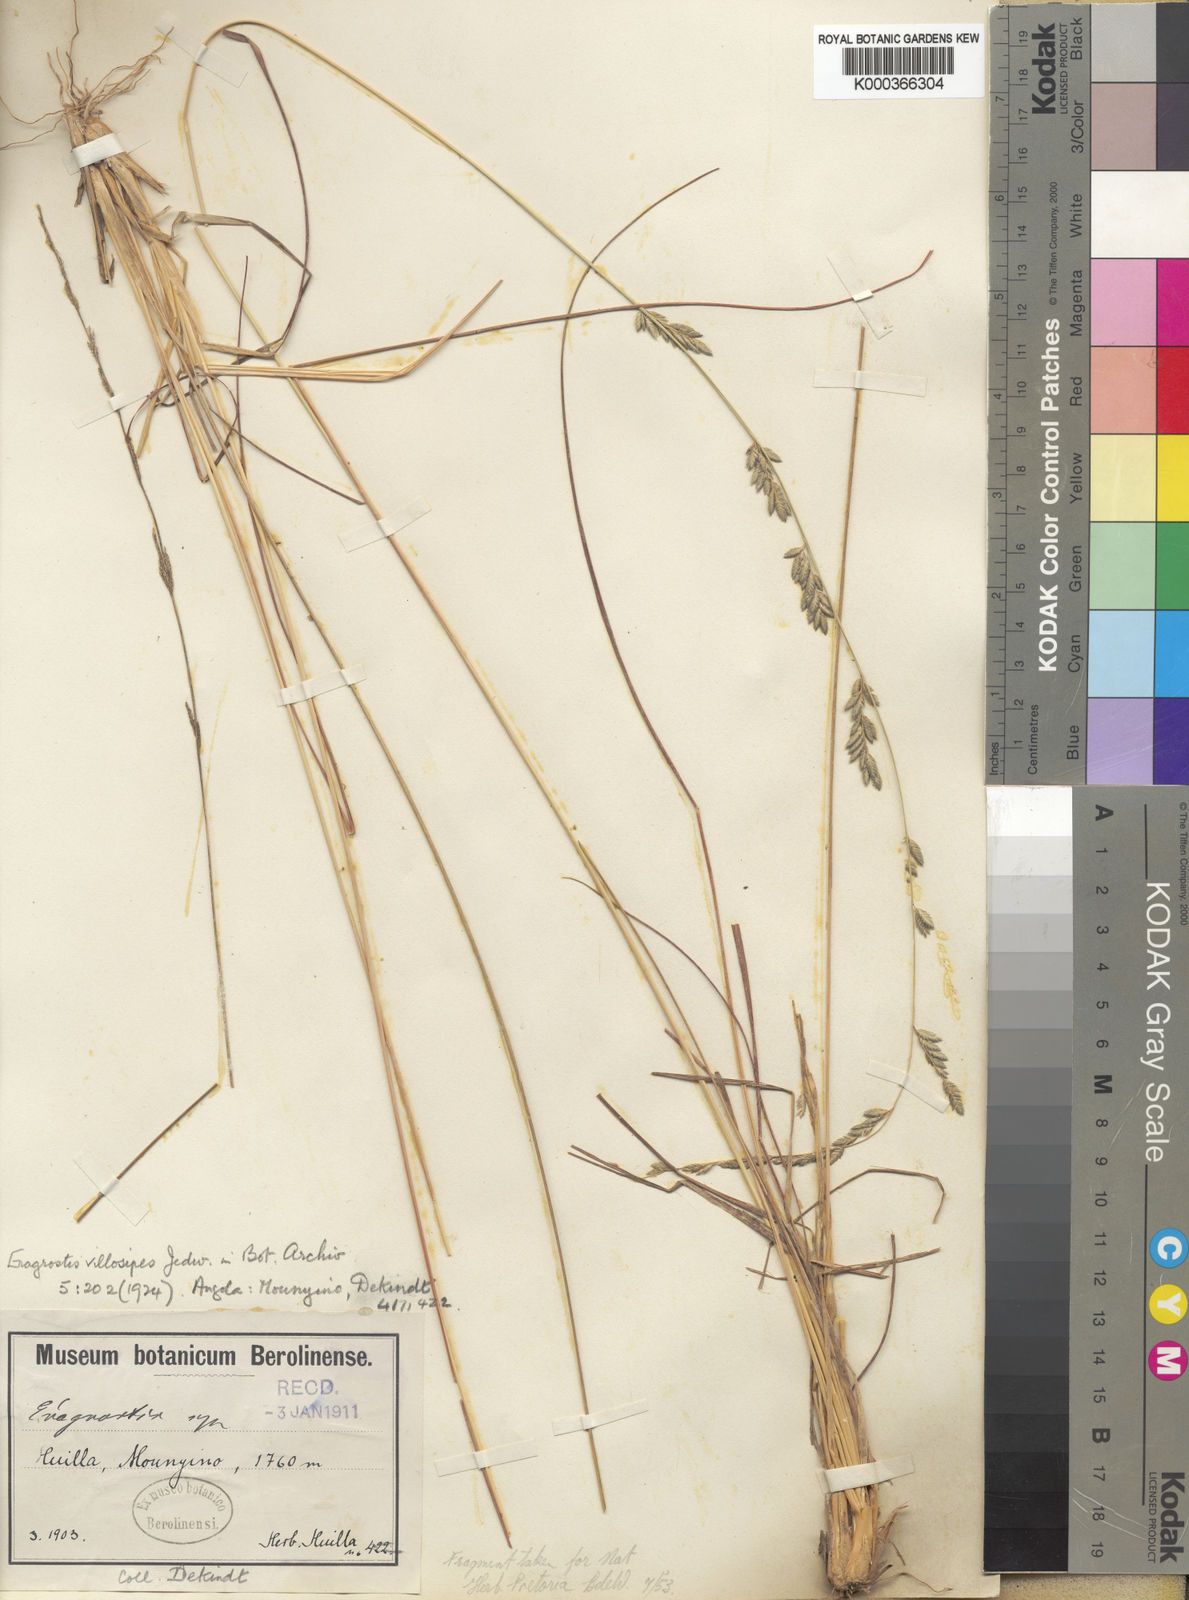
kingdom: Plantae
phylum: Tracheophyta
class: Liliopsida
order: Poales
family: Poaceae
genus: Eragrostis
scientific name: Eragrostis sclerantha
